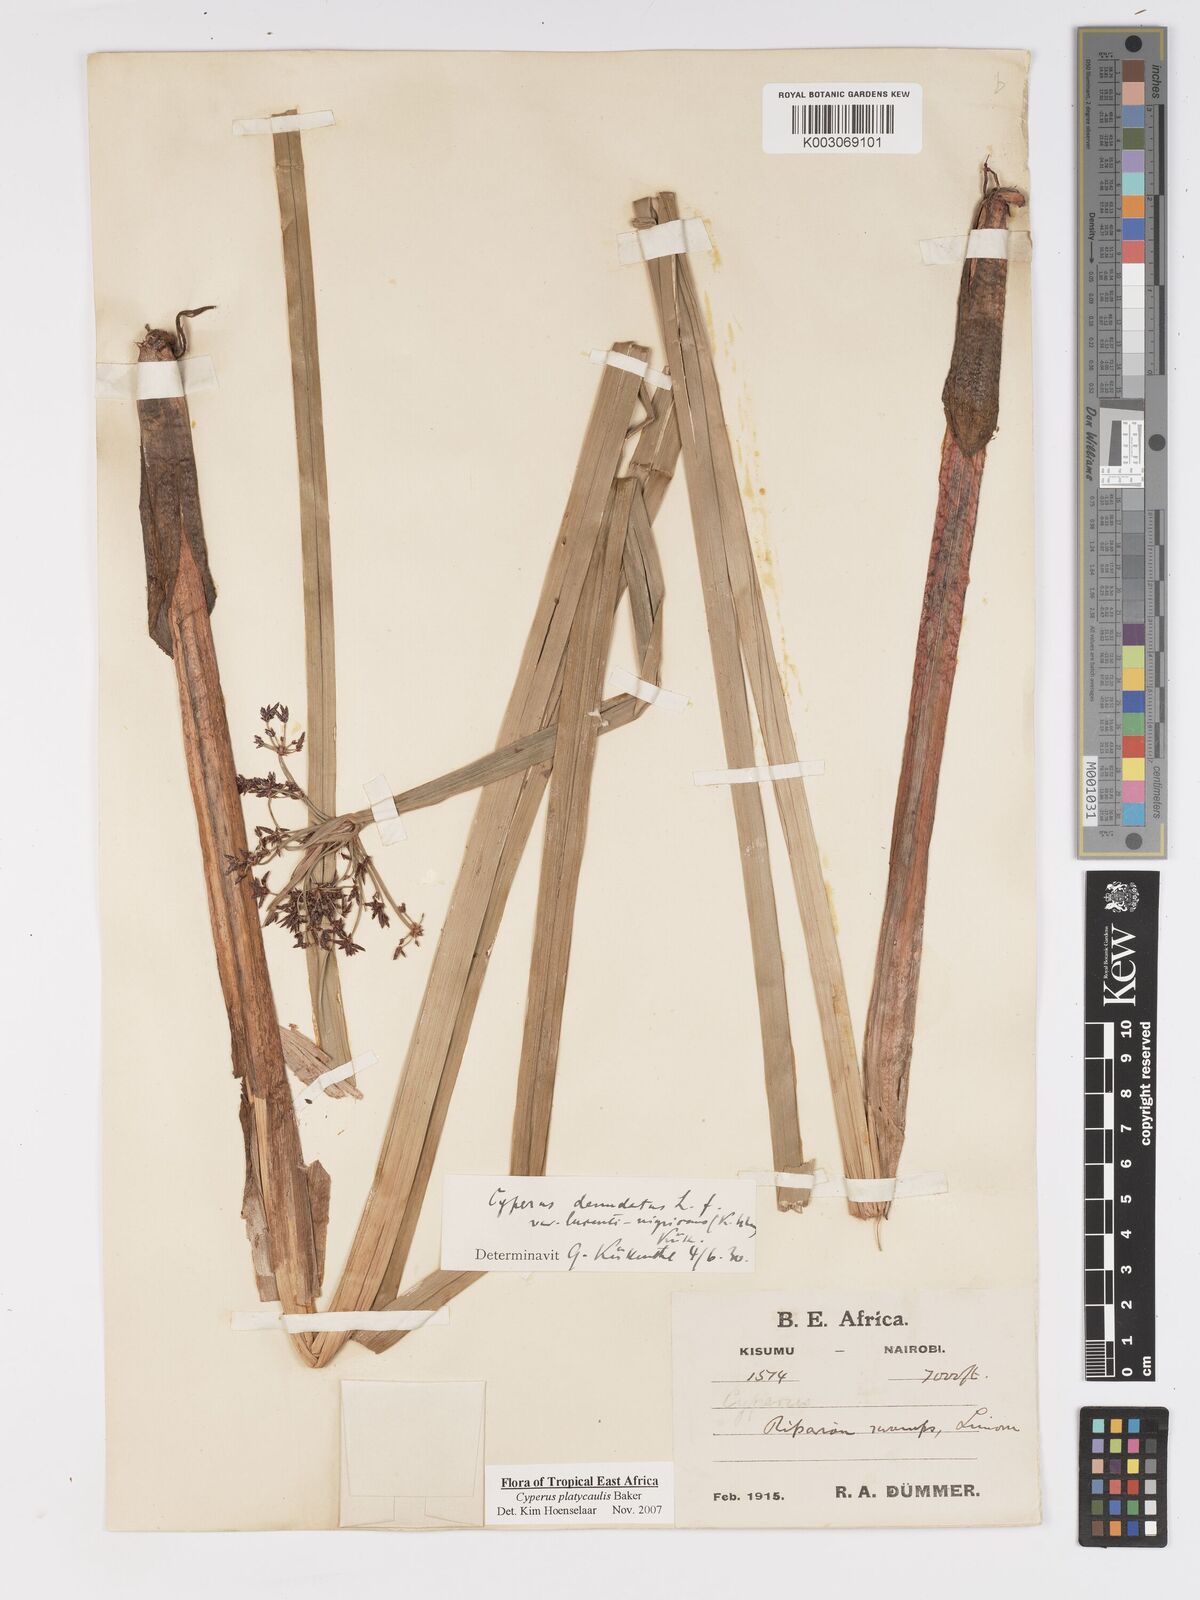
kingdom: Plantae
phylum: Tracheophyta
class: Liliopsida
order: Poales
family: Cyperaceae
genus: Cyperus
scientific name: Cyperus platycaulis
